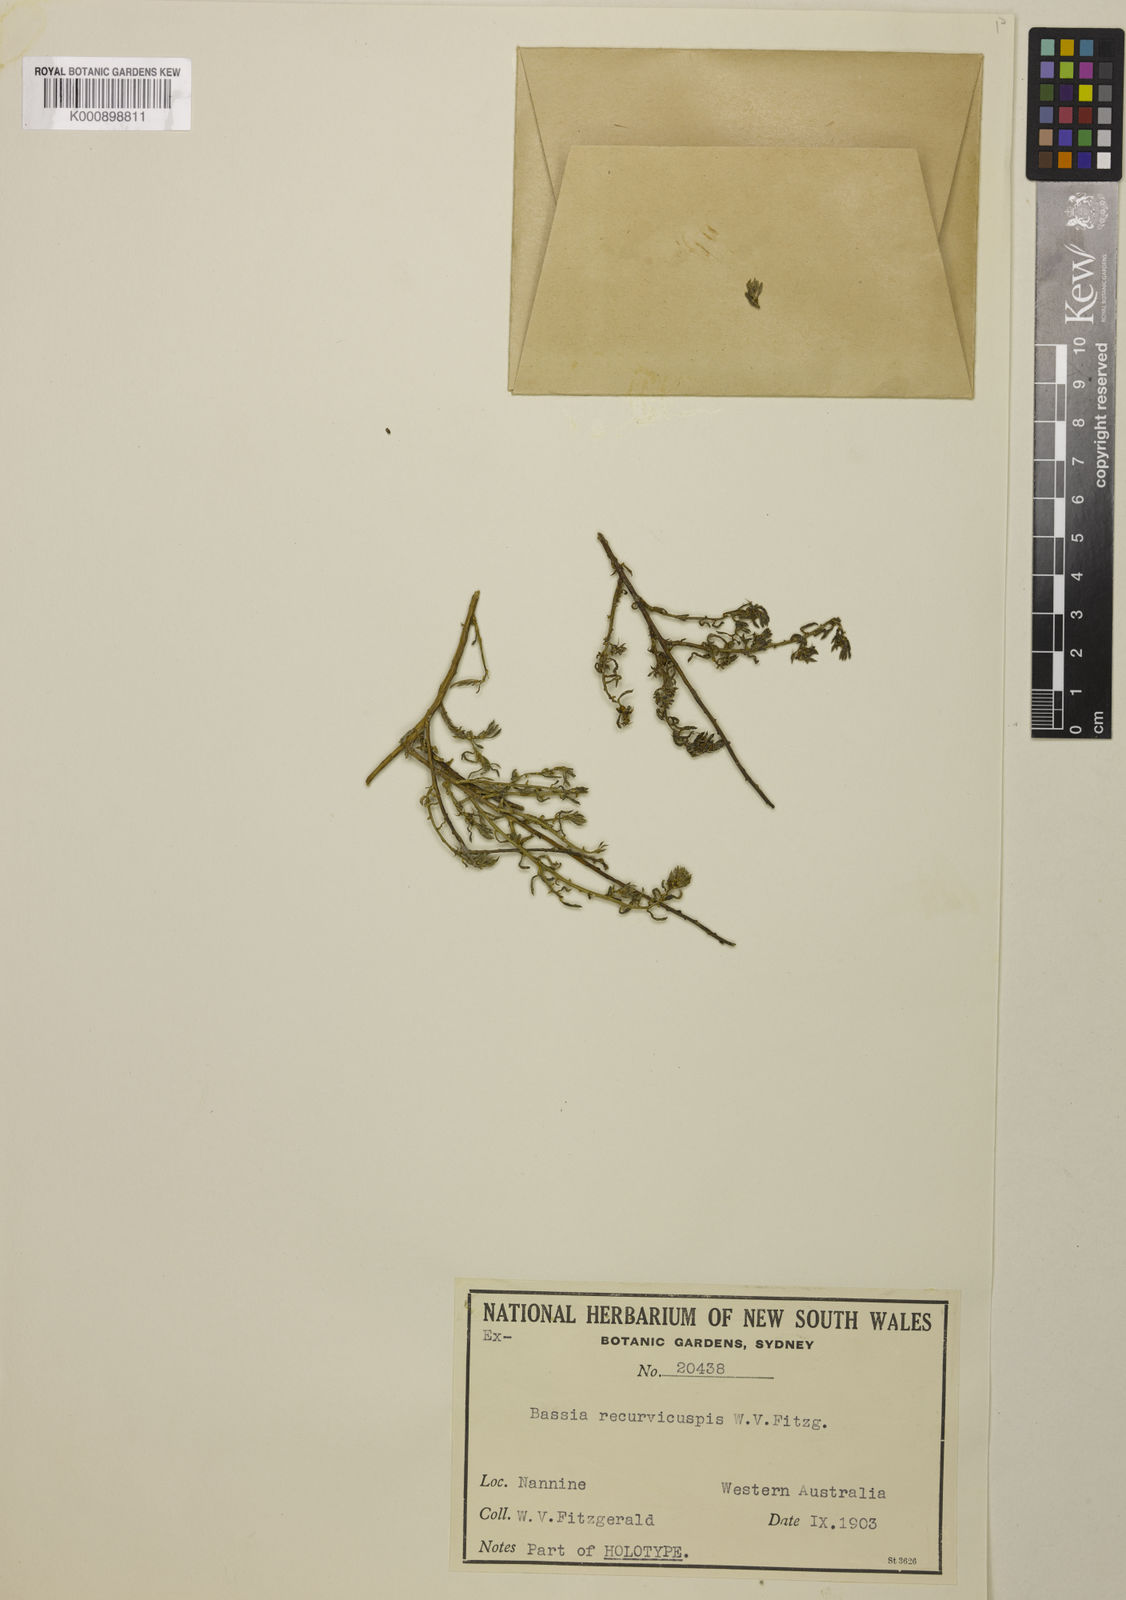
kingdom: Plantae
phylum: Tracheophyta
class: Magnoliopsida
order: Caryophyllales
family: Amaranthaceae
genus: Sclerolaena
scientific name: Sclerolaena recurvicuspis
